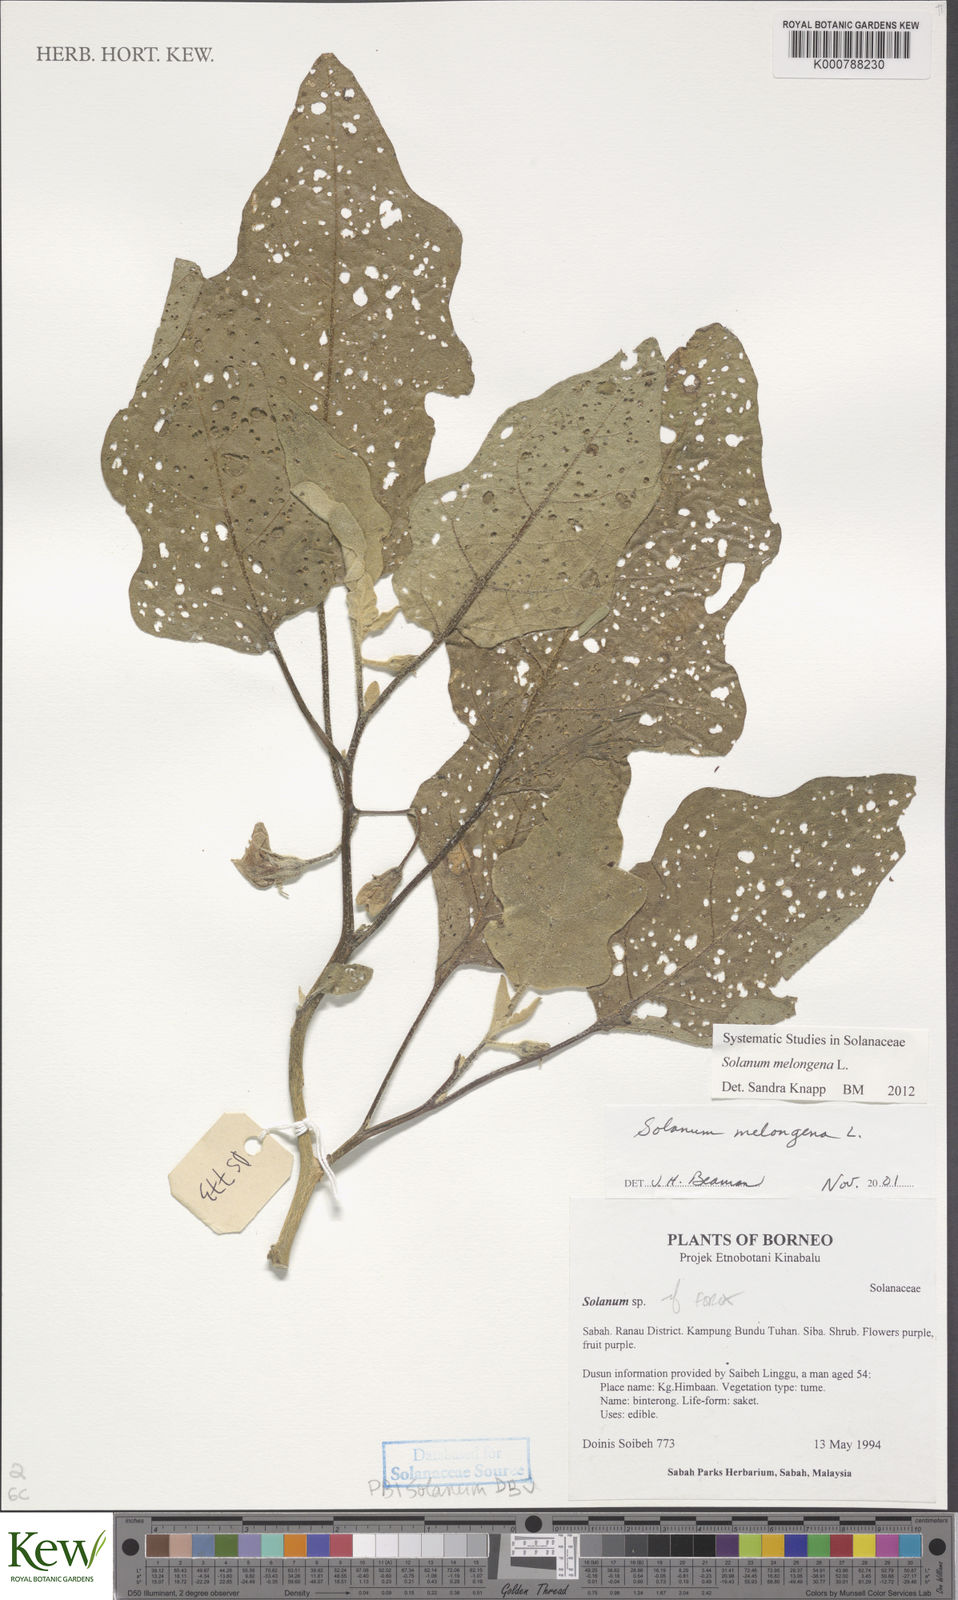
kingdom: Plantae
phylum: Tracheophyta
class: Magnoliopsida
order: Solanales
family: Solanaceae
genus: Solanum
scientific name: Solanum melongena
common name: Eggplant
